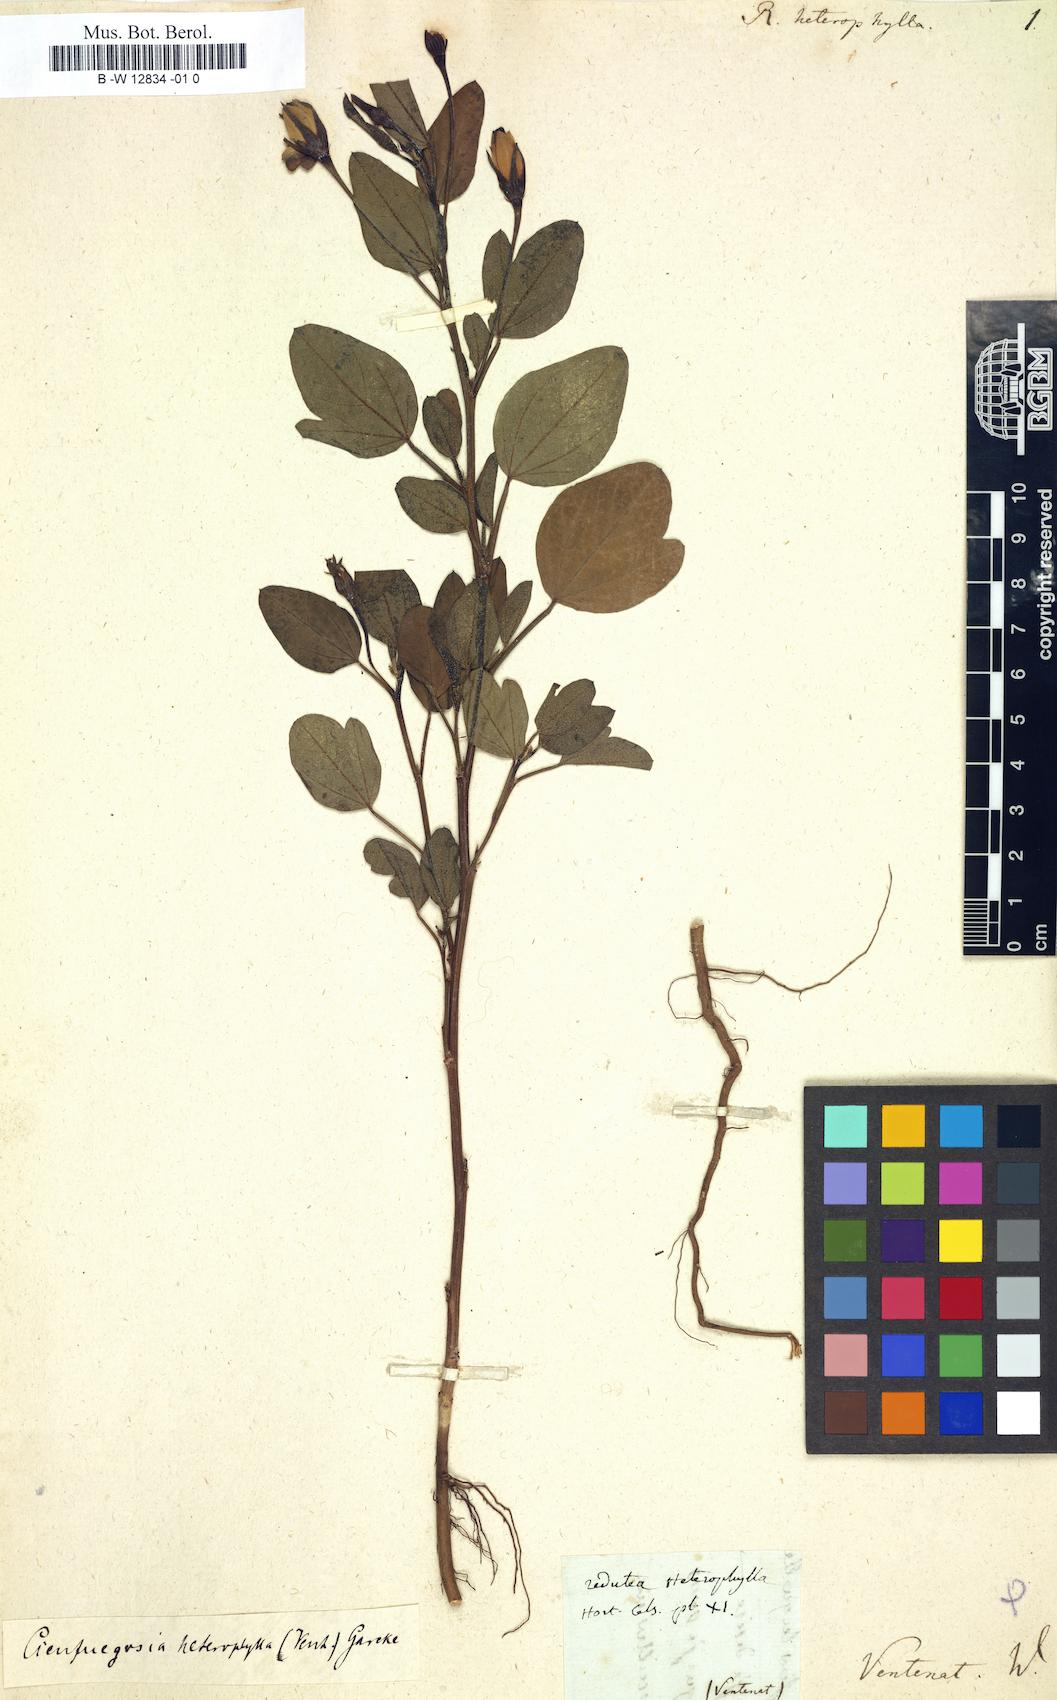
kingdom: Plantae
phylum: Tracheophyta
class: Magnoliopsida
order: Malvales
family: Malvaceae
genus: Cienfuegosia
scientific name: Cienfuegosia heterophylla
